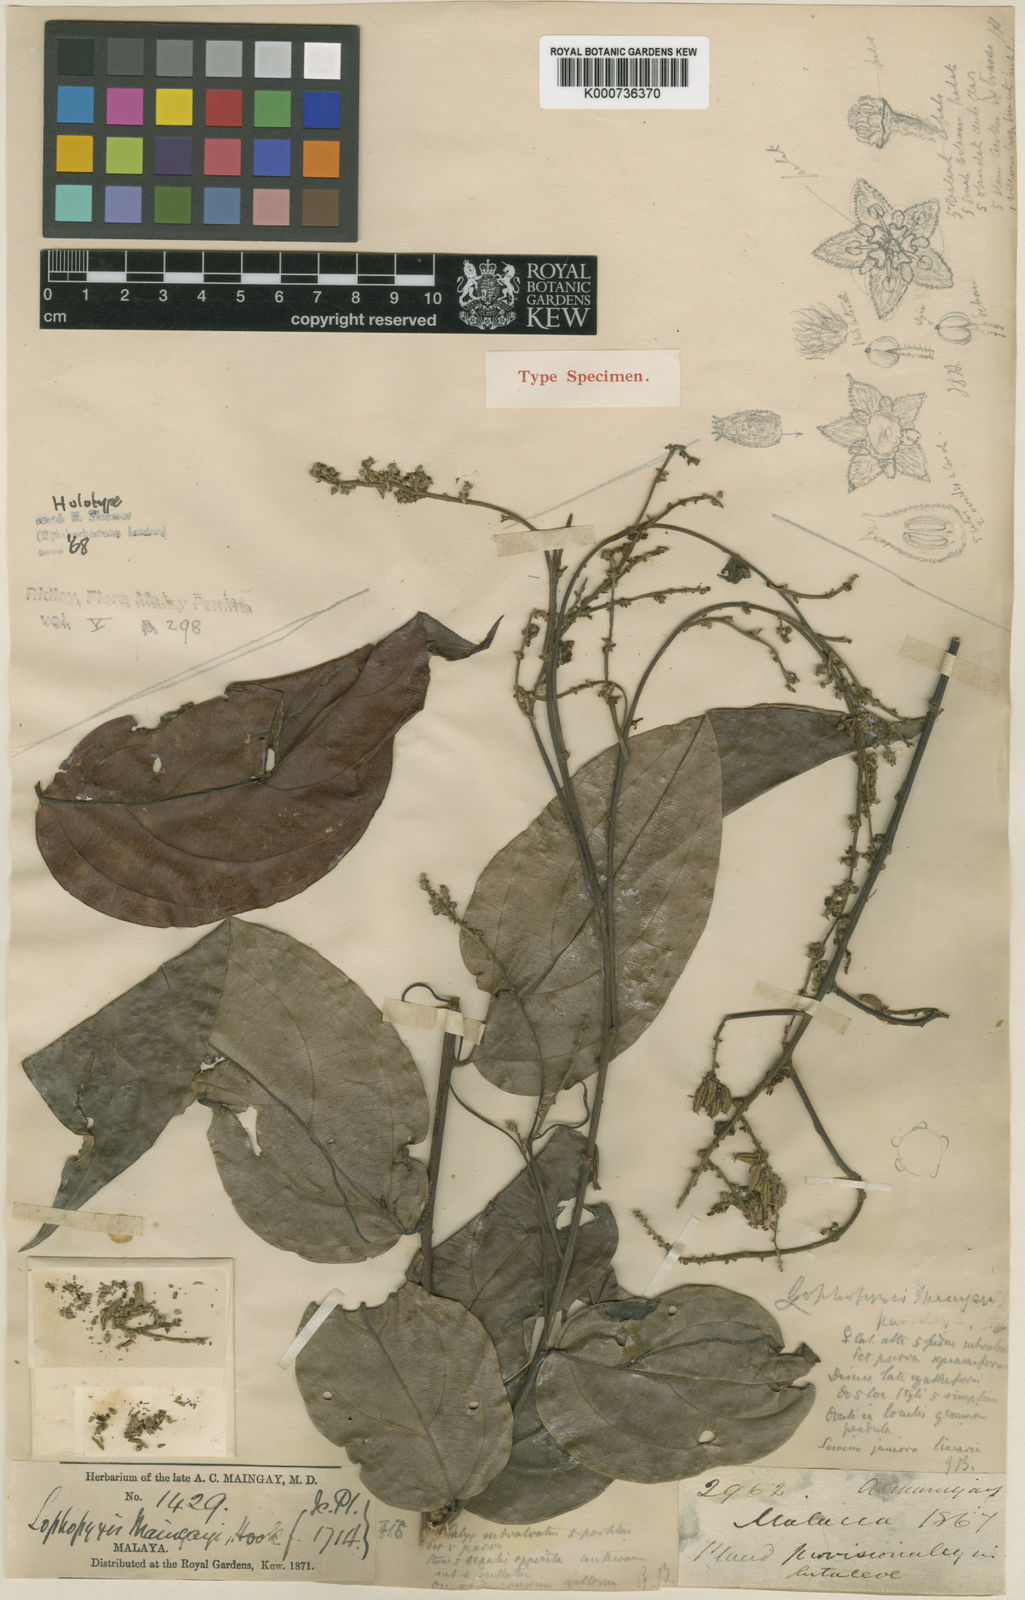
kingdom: Plantae
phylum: Tracheophyta
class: Magnoliopsida
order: Malpighiales
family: Lophopyxidaceae
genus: Lophopyxis
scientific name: Lophopyxis maingayi
